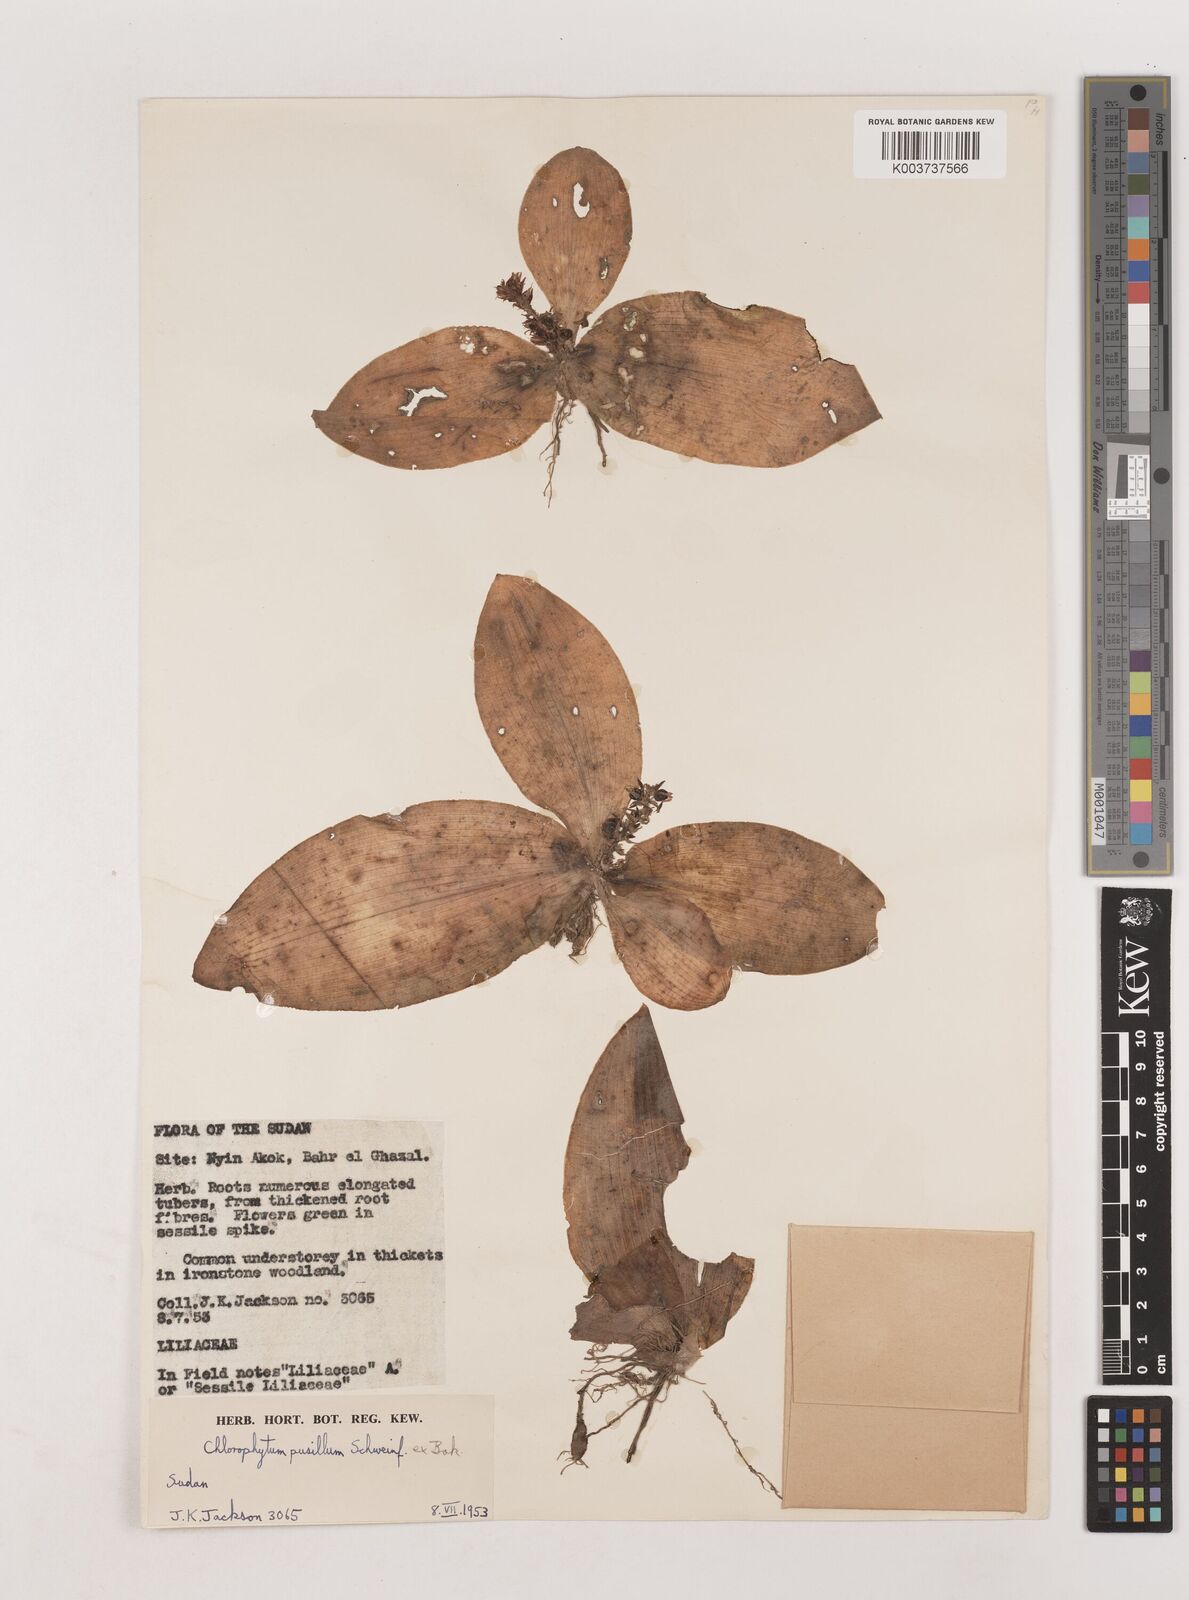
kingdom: Plantae
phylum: Tracheophyta
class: Liliopsida
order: Asparagales
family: Asparagaceae
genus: Chlorophytum
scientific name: Chlorophytum pusillum
